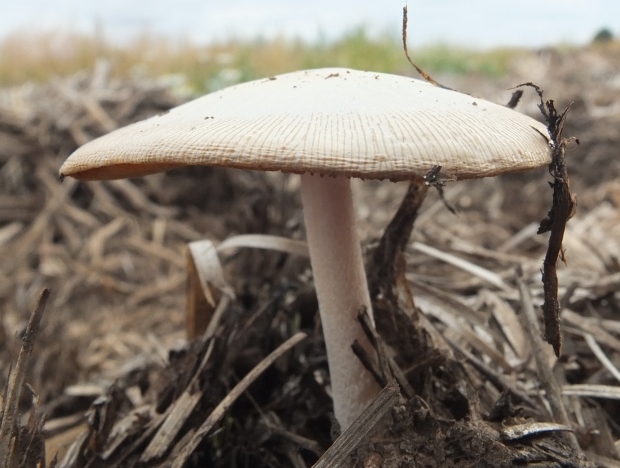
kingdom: Fungi
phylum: Basidiomycota
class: Agaricomycetes
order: Agaricales
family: Bolbitiaceae
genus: Bolbitius
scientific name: Bolbitius coprophilus
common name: rosa gulhat
